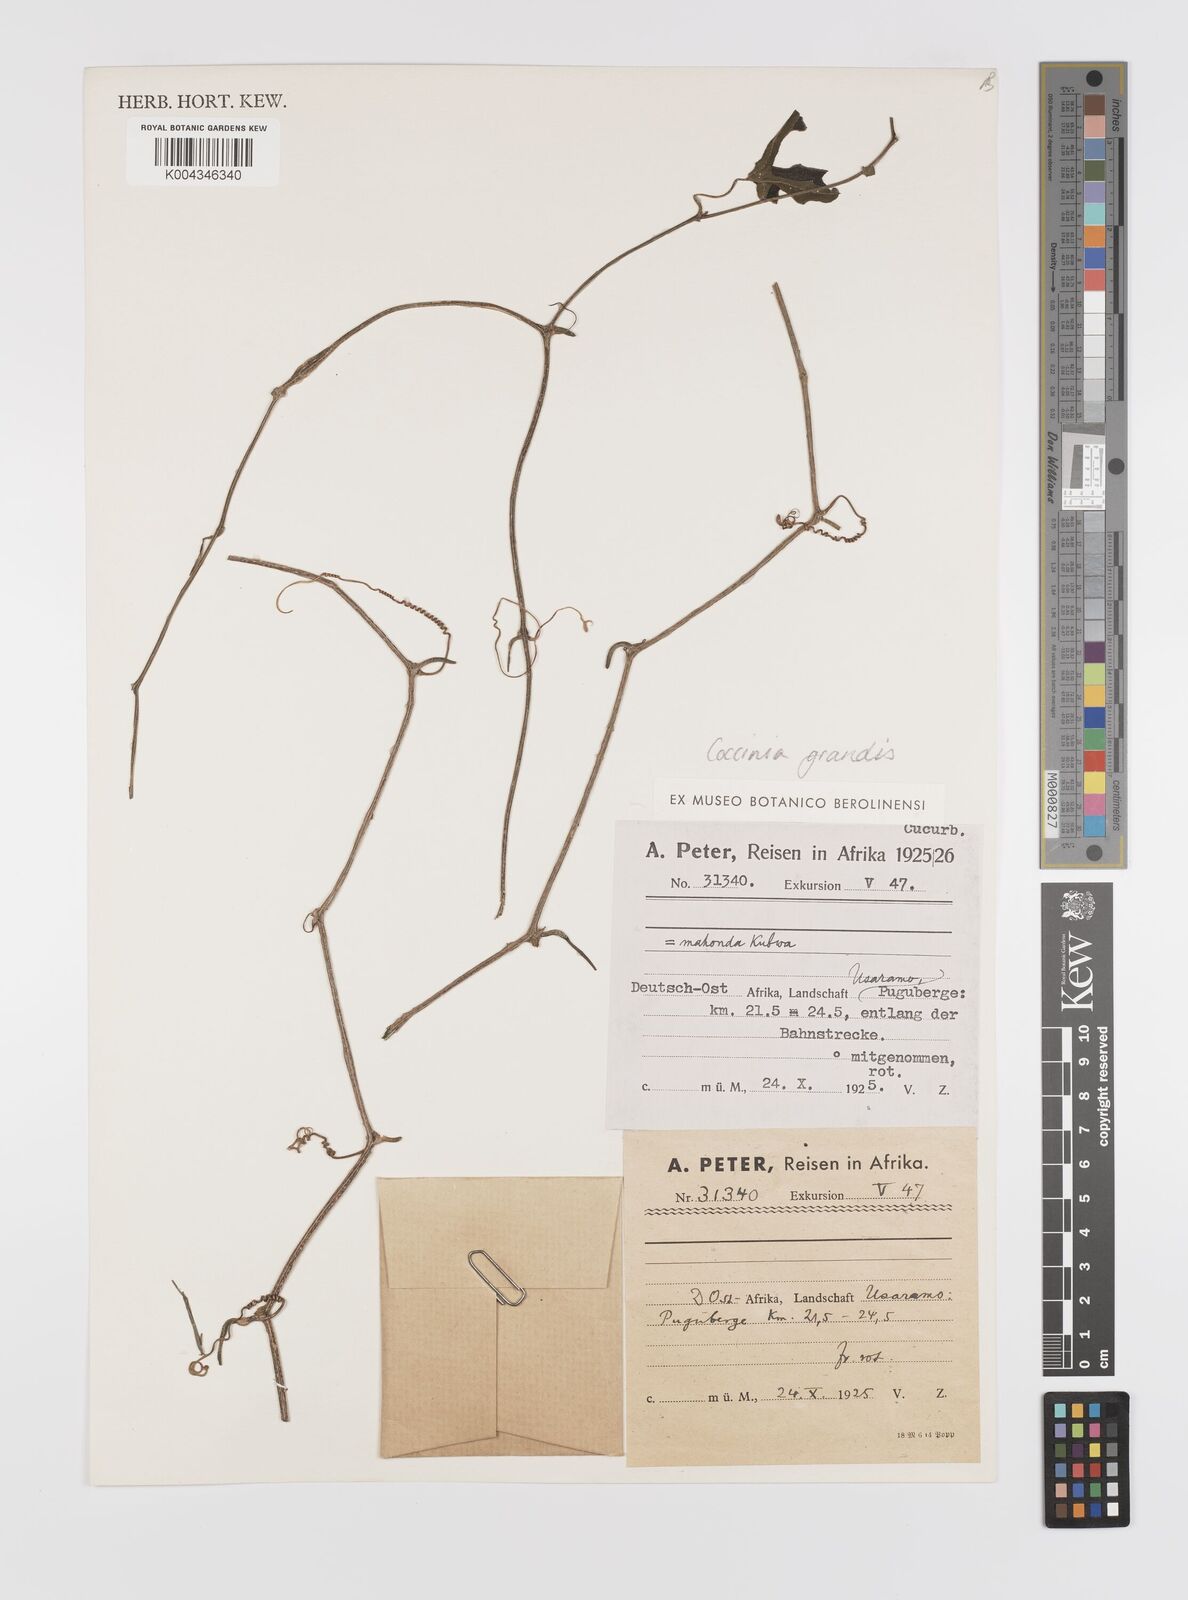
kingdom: Plantae
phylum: Tracheophyta
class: Magnoliopsida
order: Cucurbitales
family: Cucurbitaceae
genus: Coccinia
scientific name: Coccinia grandis
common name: Ivy gourd
